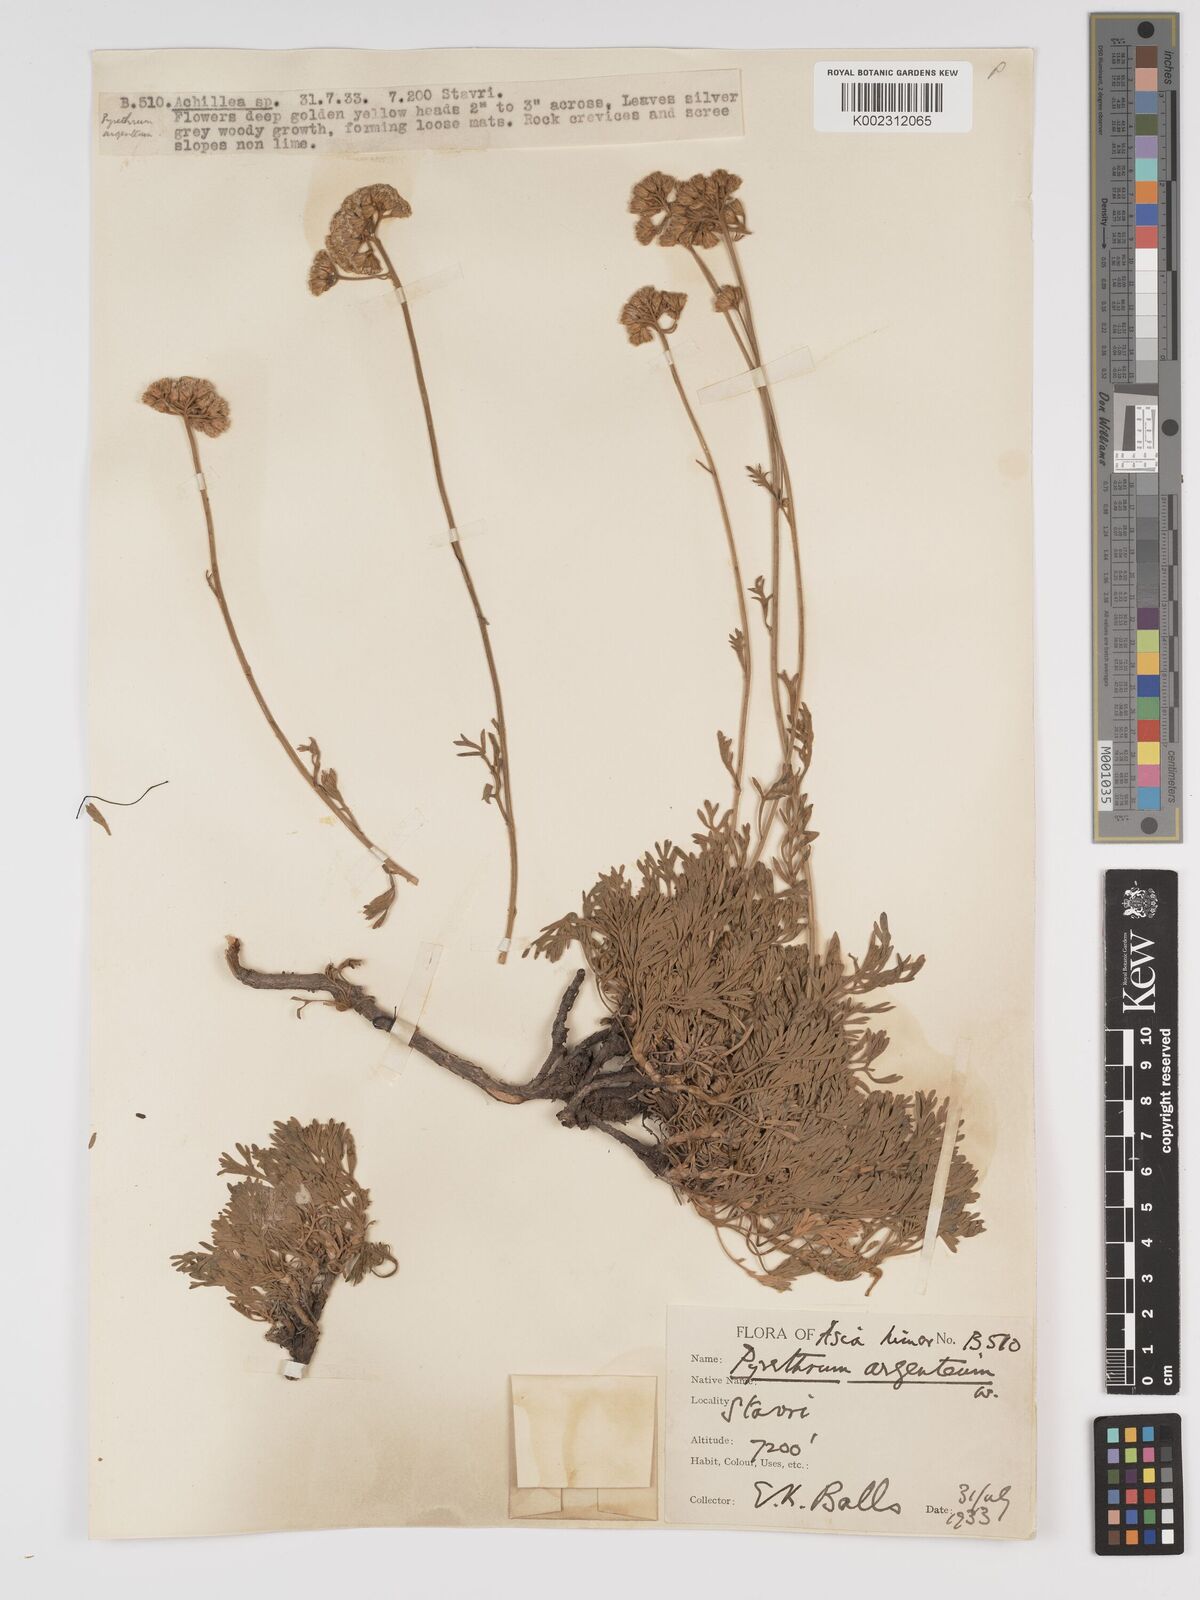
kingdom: Plantae
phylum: Tracheophyta
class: Magnoliopsida
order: Asterales
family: Asteraceae
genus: Tanacetum
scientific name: Tanacetum argenteum
